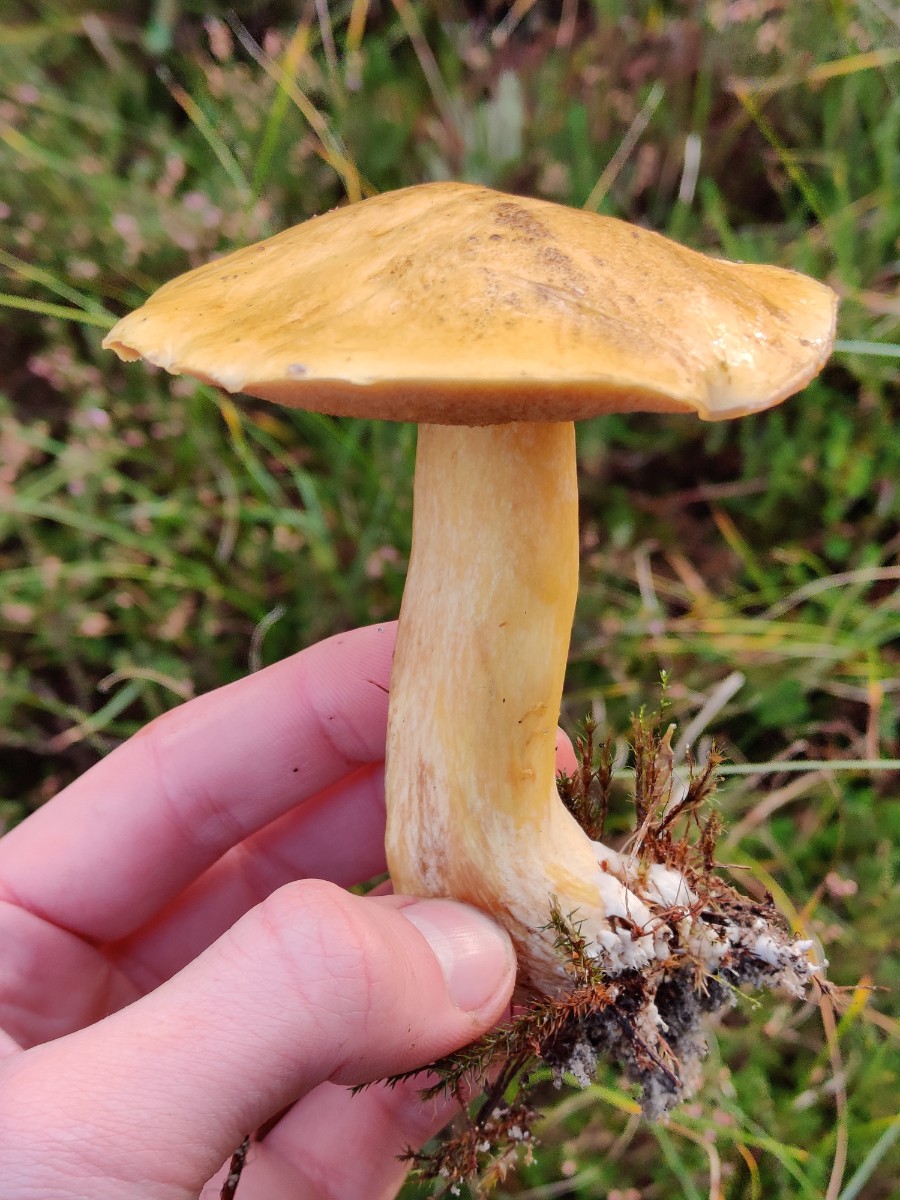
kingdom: Fungi
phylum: Basidiomycota
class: Agaricomycetes
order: Boletales
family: Suillaceae
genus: Suillus
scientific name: Suillus variegatus
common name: broget slimrørhat
